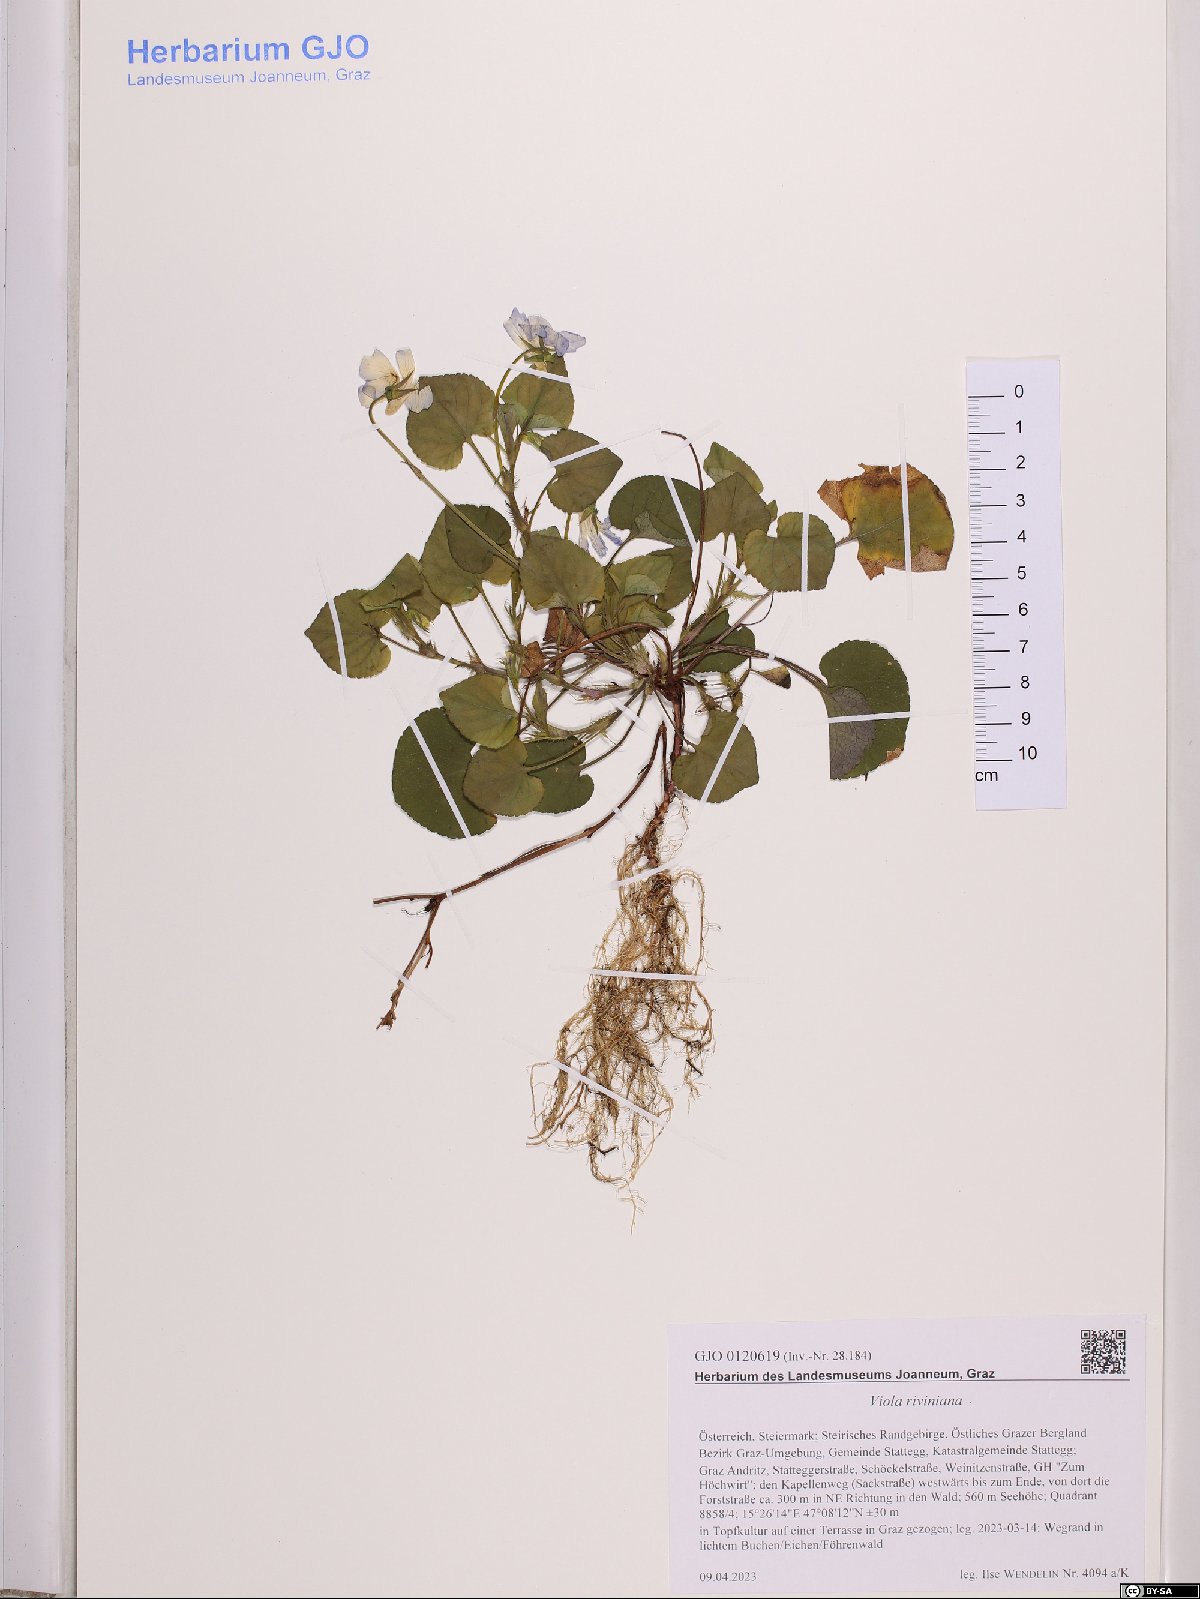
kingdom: Plantae
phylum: Tracheophyta
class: Magnoliopsida
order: Malpighiales
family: Violaceae
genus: Viola
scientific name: Viola riviniana
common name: Common dog-violet
